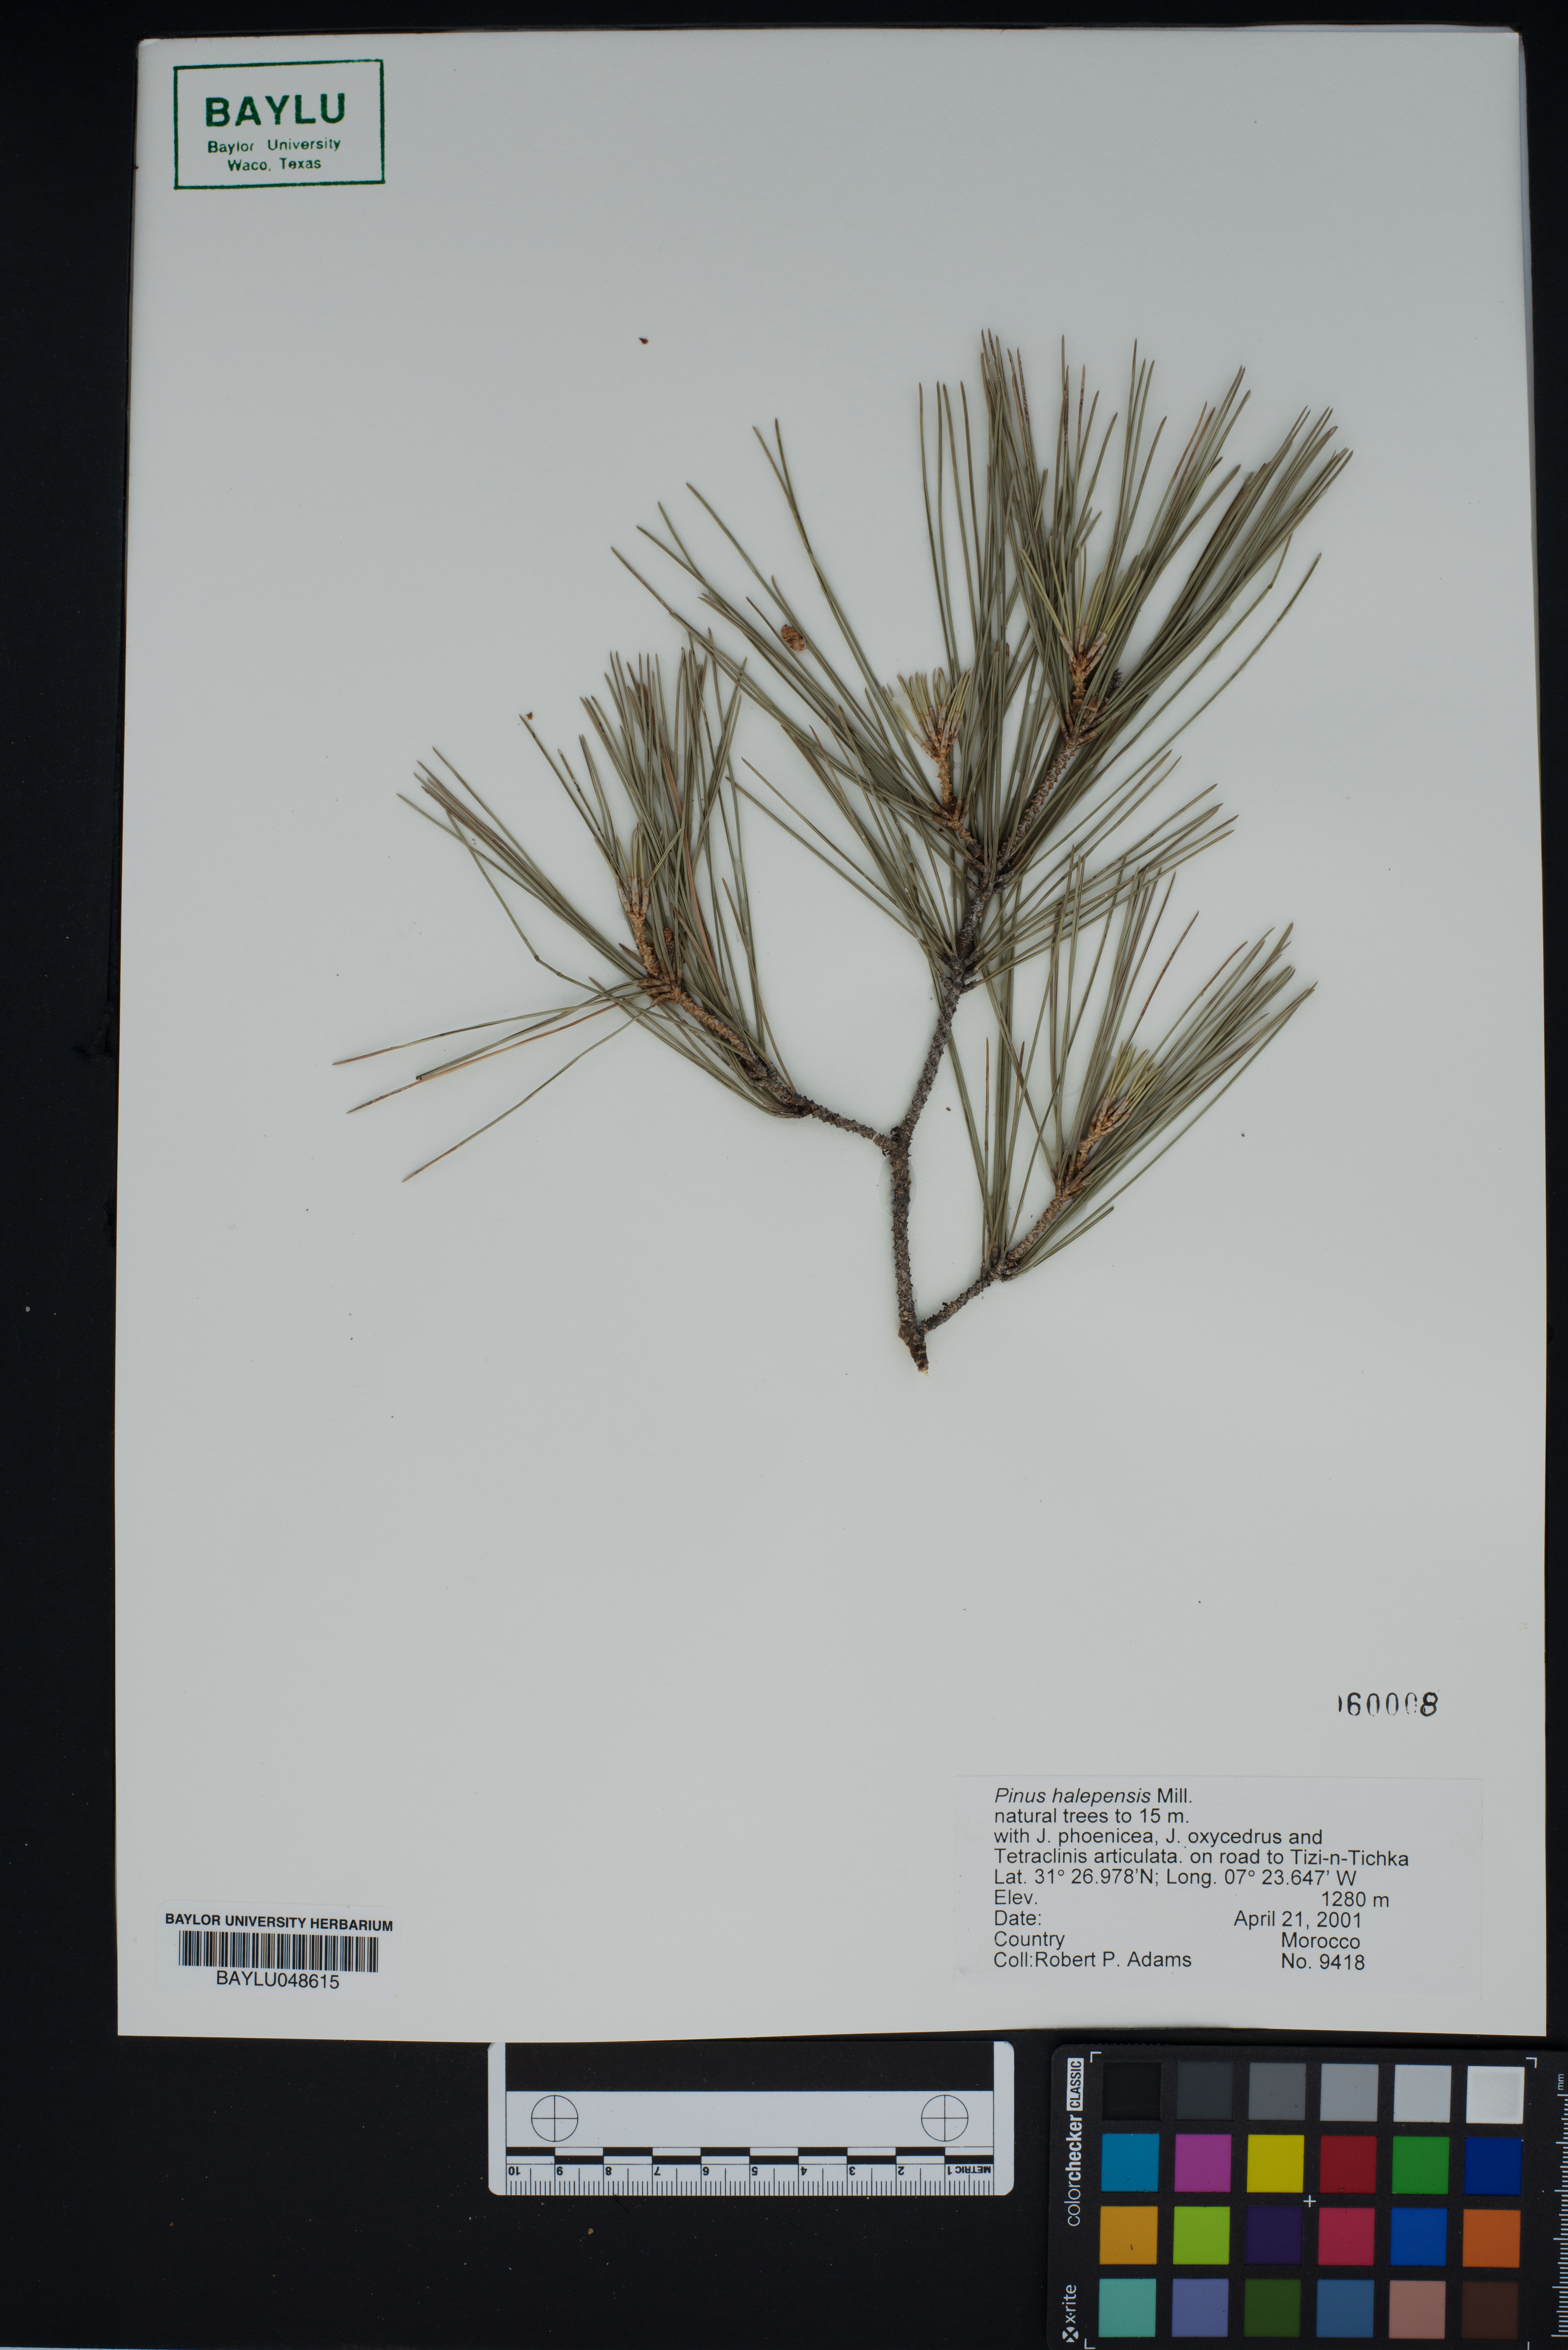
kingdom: Plantae
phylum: Tracheophyta
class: Pinopsida
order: Pinales
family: Pinaceae
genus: Pinus
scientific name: Pinus halepensis
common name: Aleppo pine
